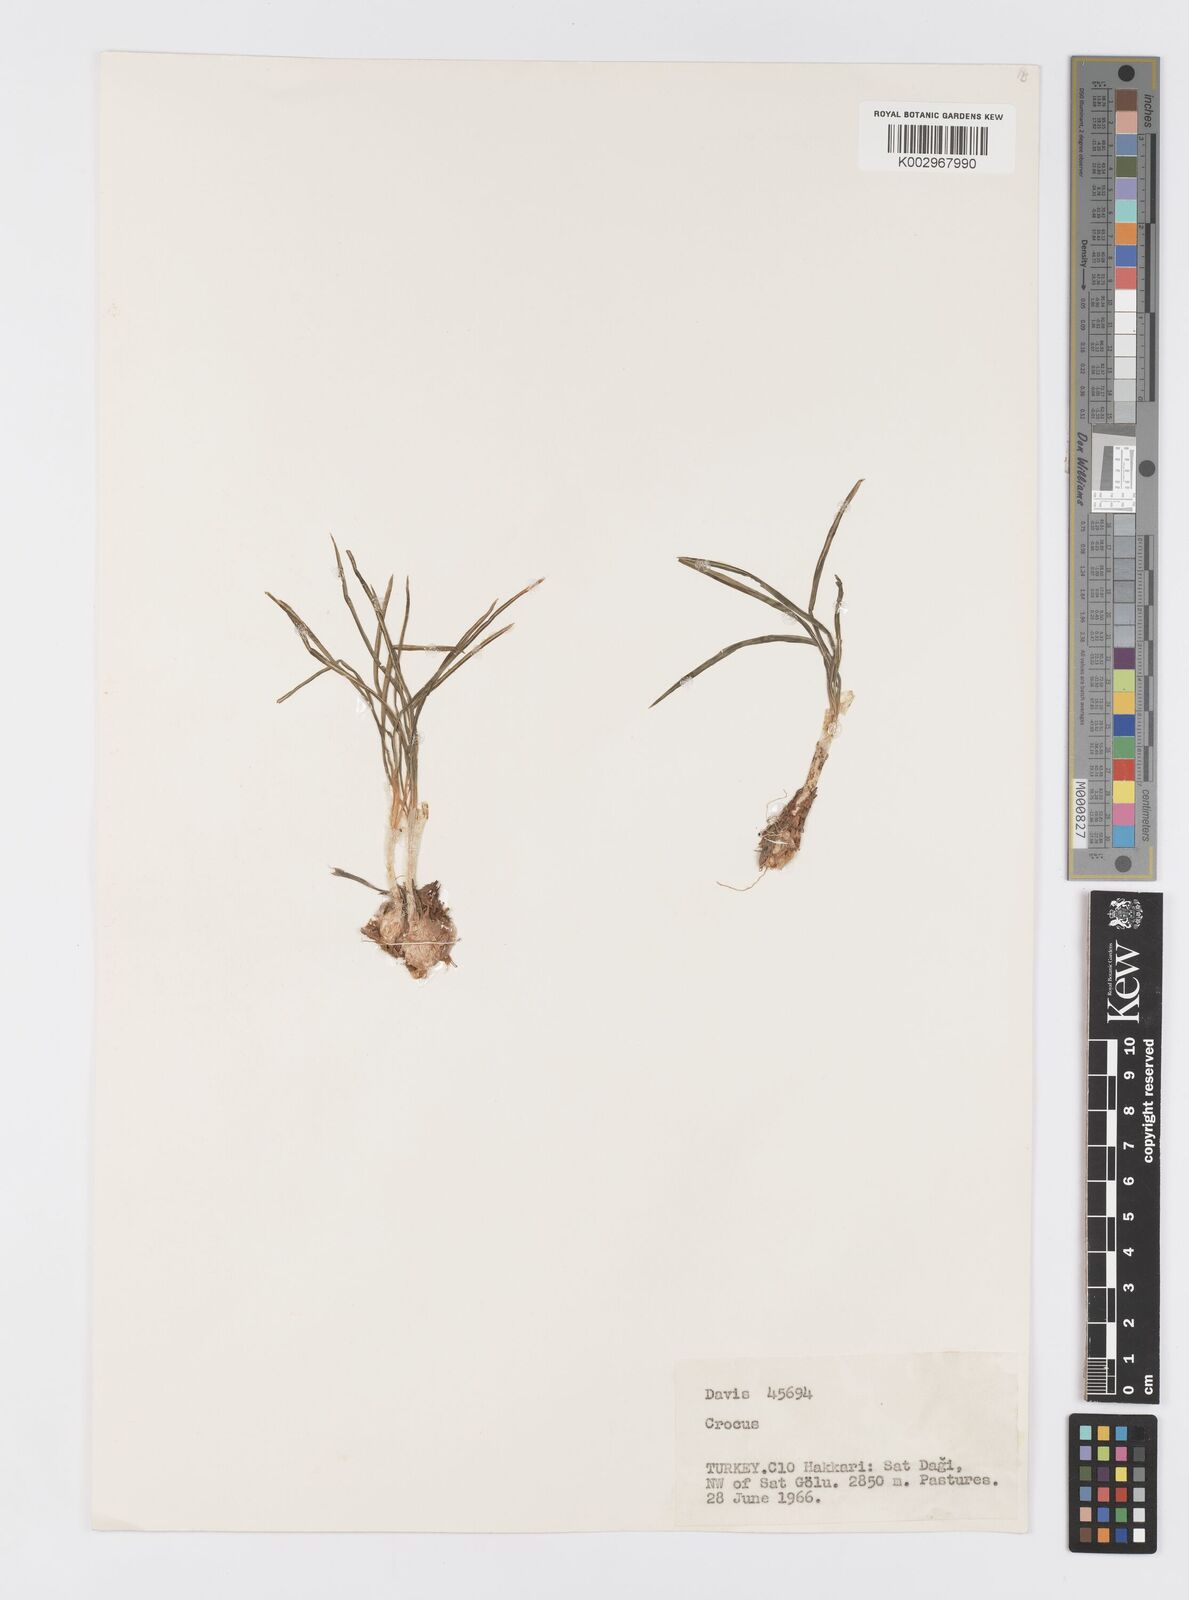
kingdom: Plantae
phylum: Tracheophyta
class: Liliopsida
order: Asparagales
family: Iridaceae
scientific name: Iridaceae
